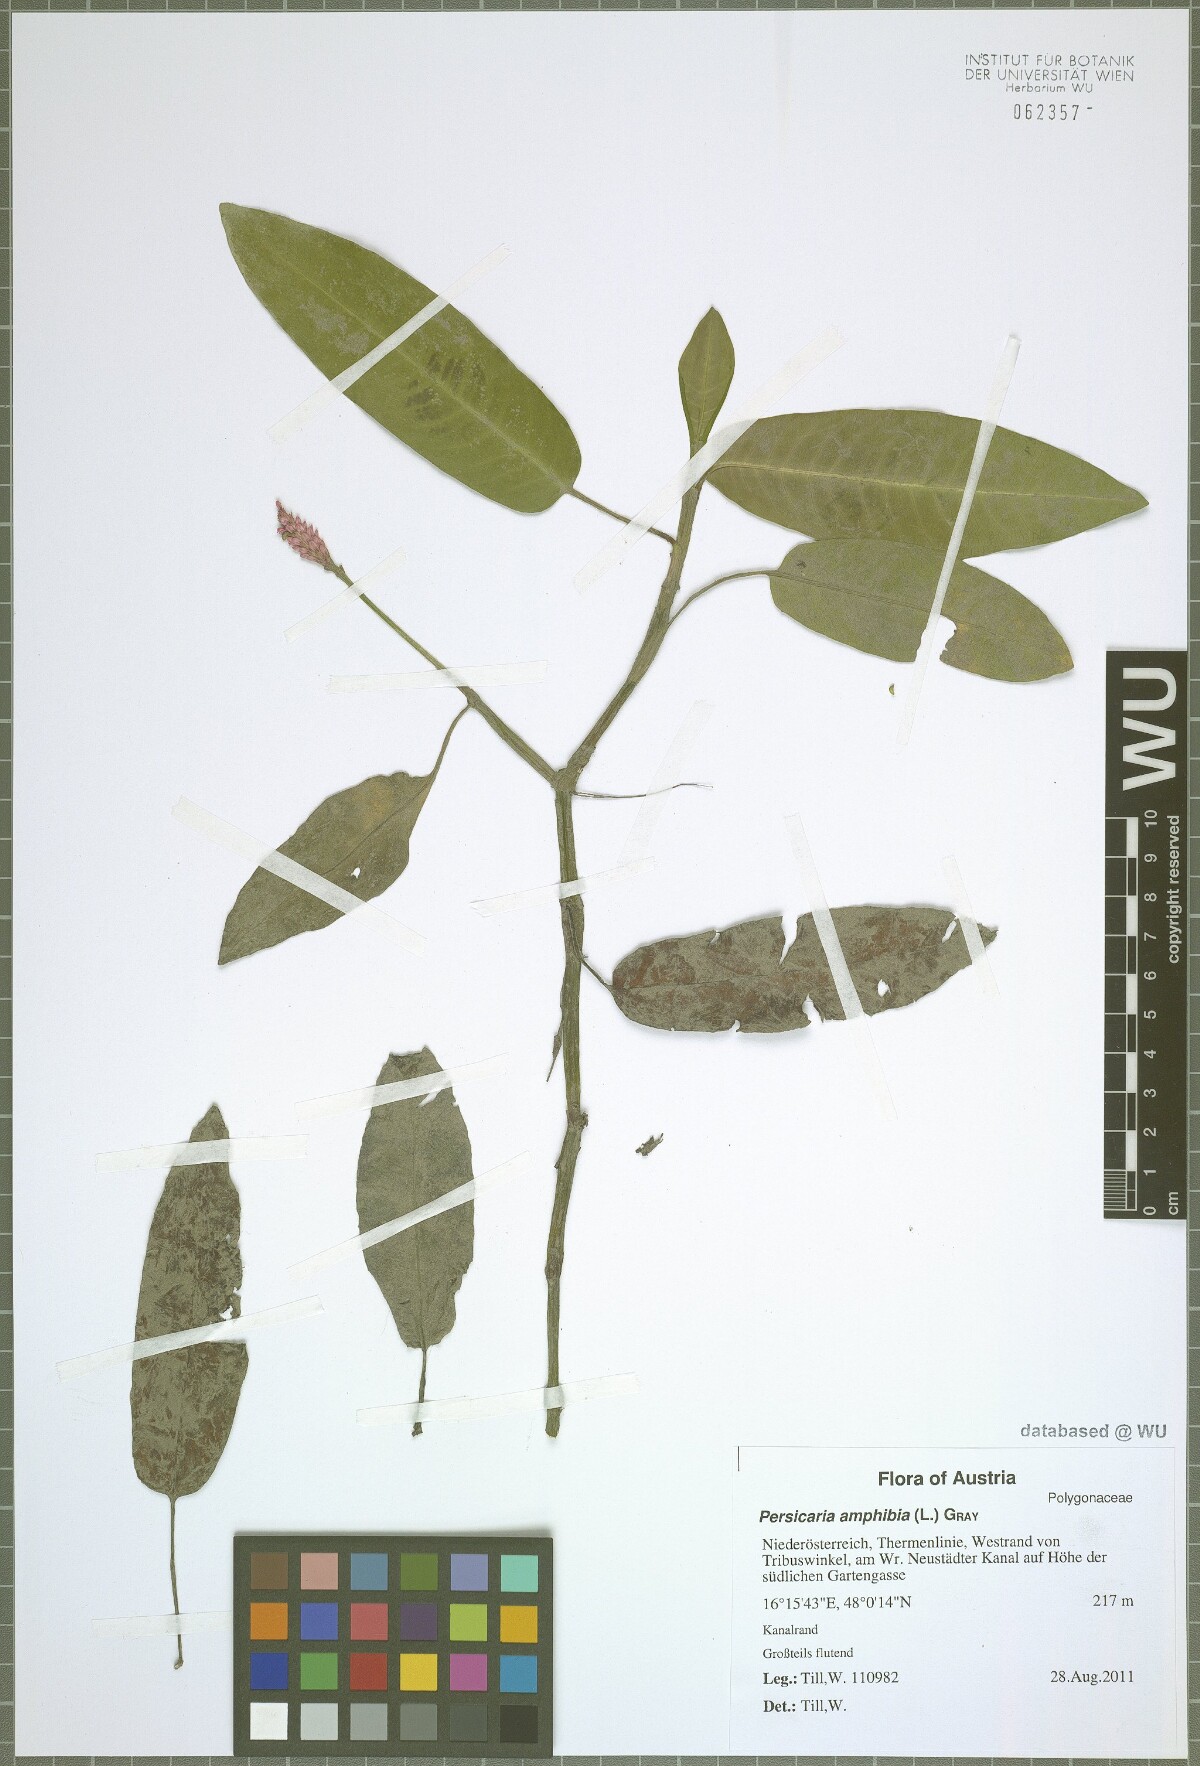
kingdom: Plantae
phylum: Tracheophyta
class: Magnoliopsida
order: Caryophyllales
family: Polygonaceae
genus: Persicaria
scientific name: Persicaria amphibia
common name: Amphibious bistort
